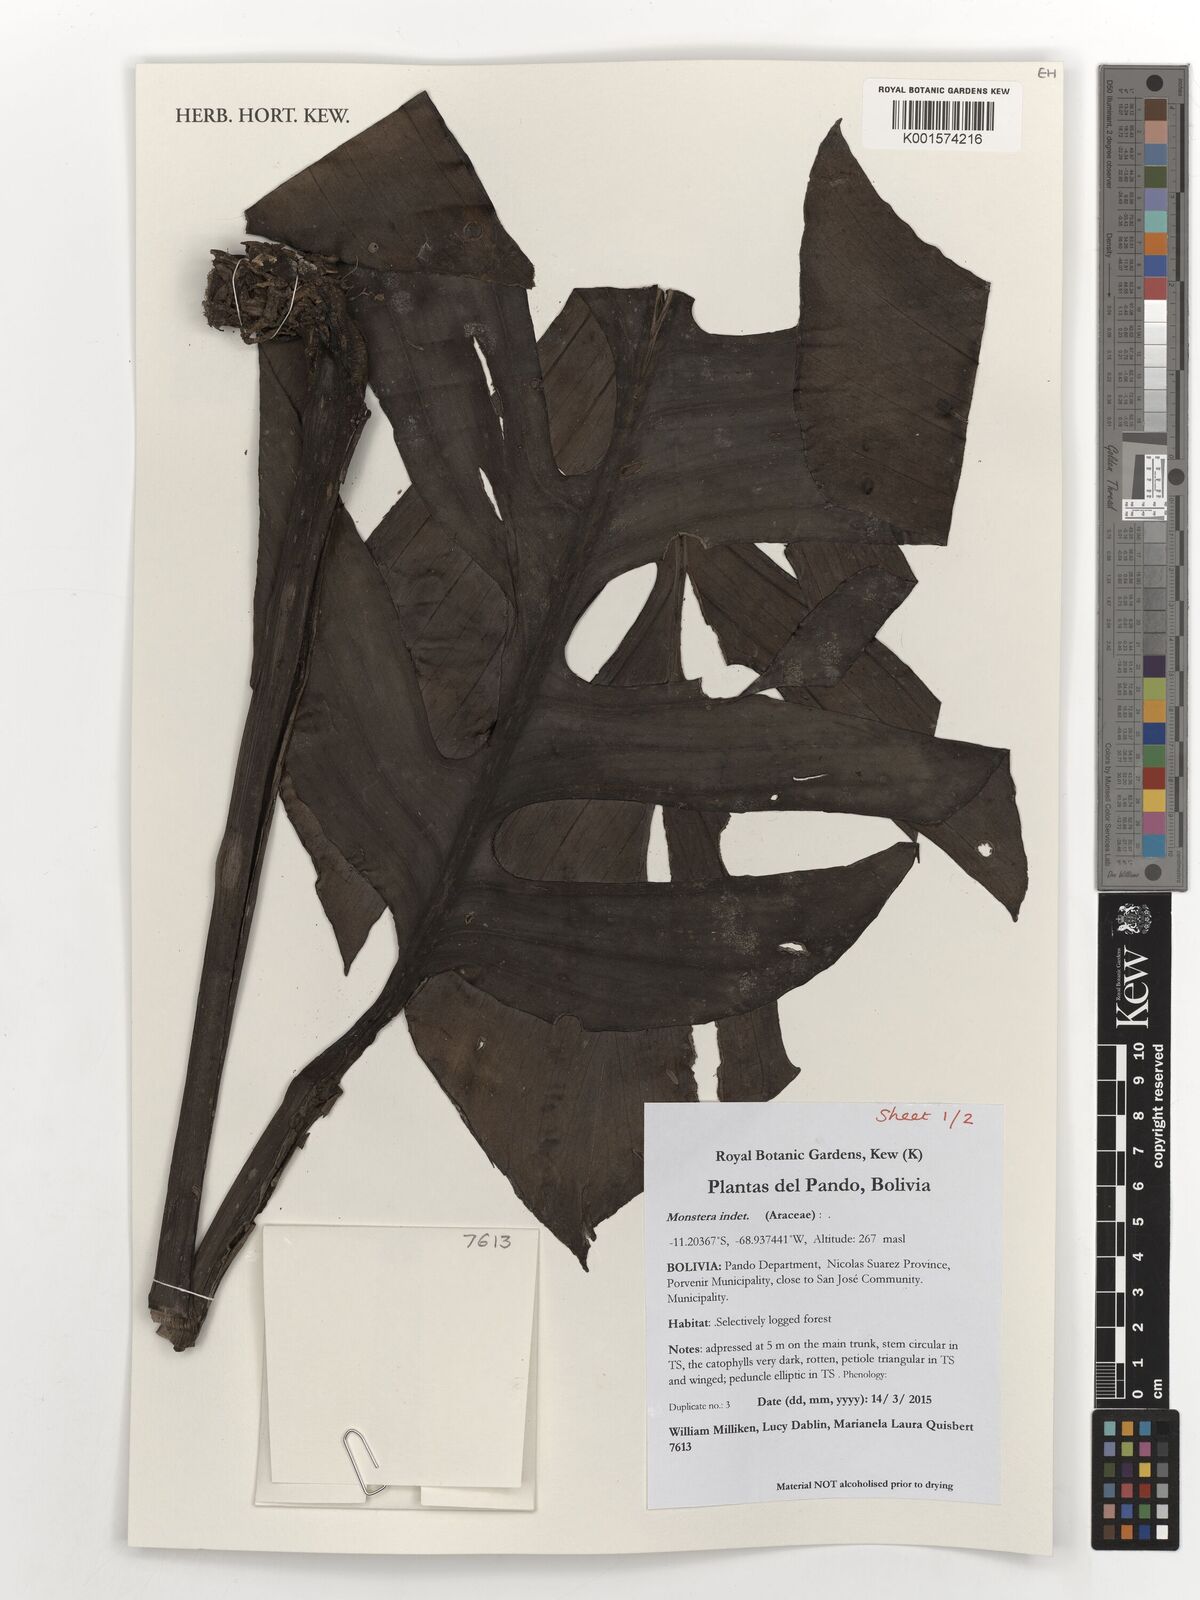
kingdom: Plantae
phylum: Tracheophyta
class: Liliopsida
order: Alismatales
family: Araceae
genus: Monstera
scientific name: Monstera
